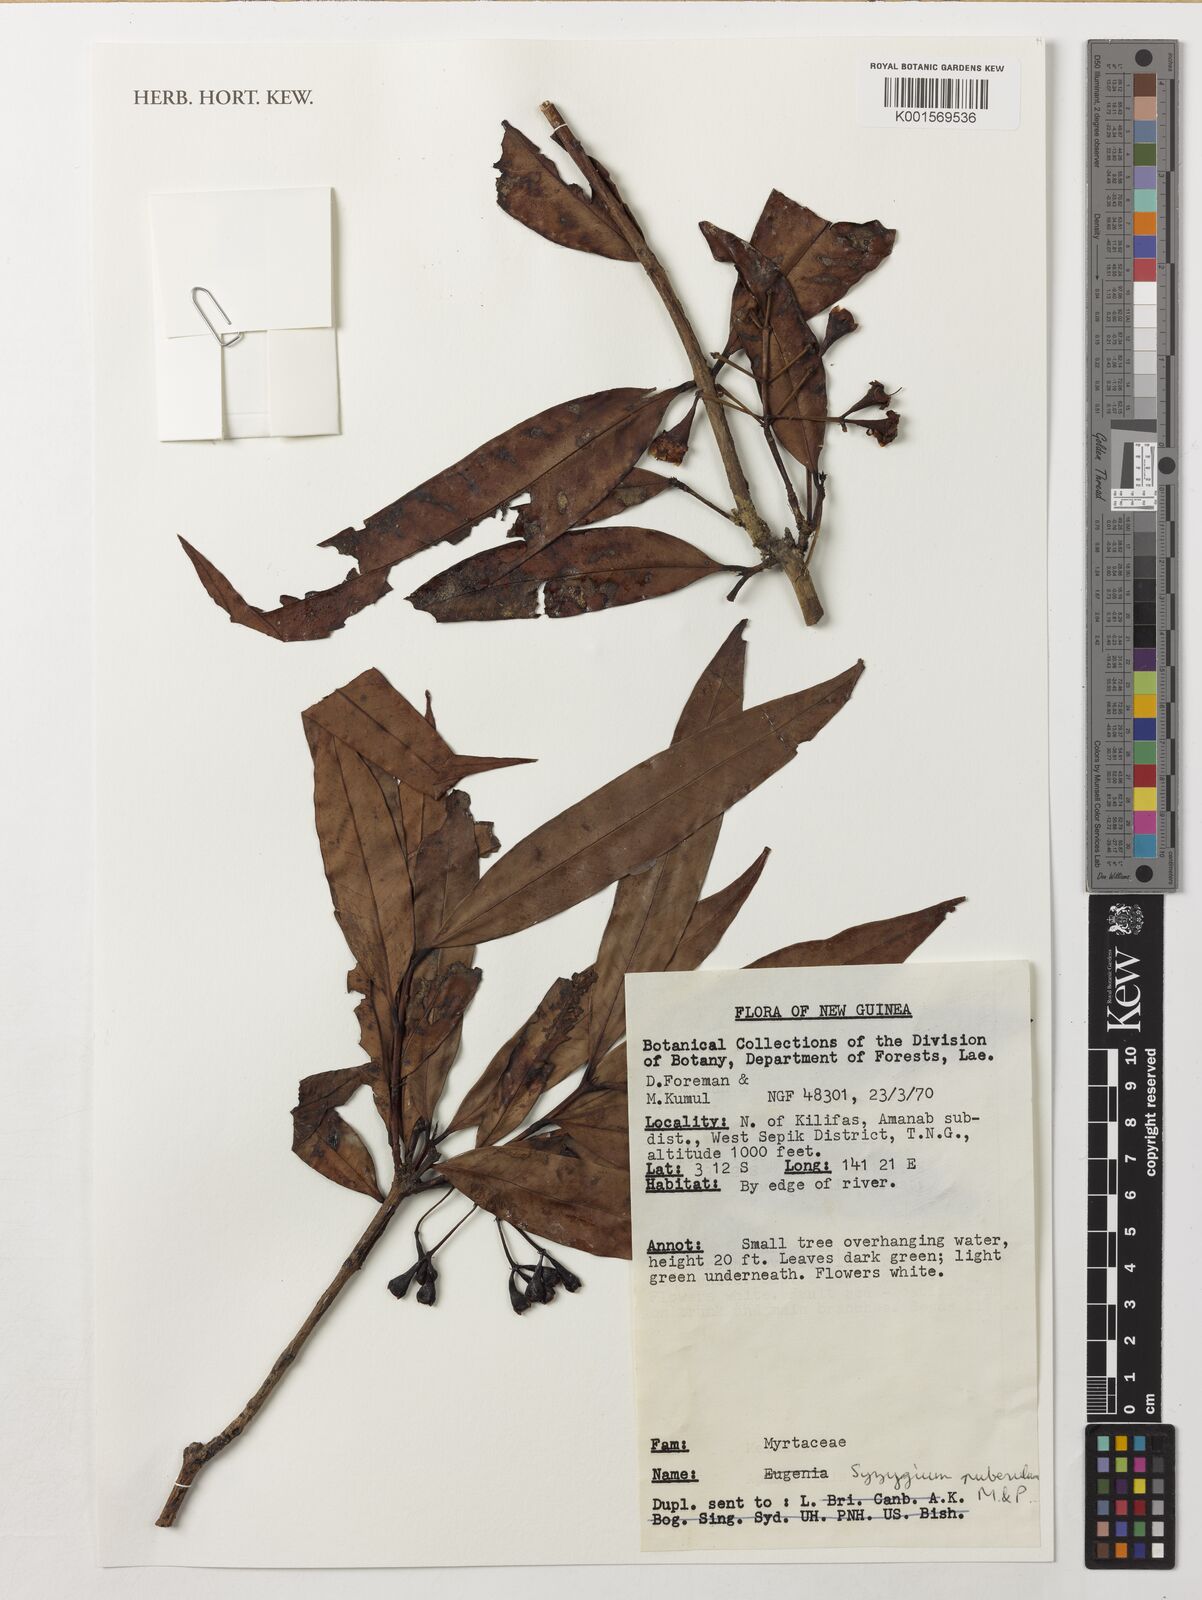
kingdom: Plantae
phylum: Tracheophyta
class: Magnoliopsida
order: Myrtales
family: Myrtaceae
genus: Syzygium
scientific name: Syzygium roemeri
